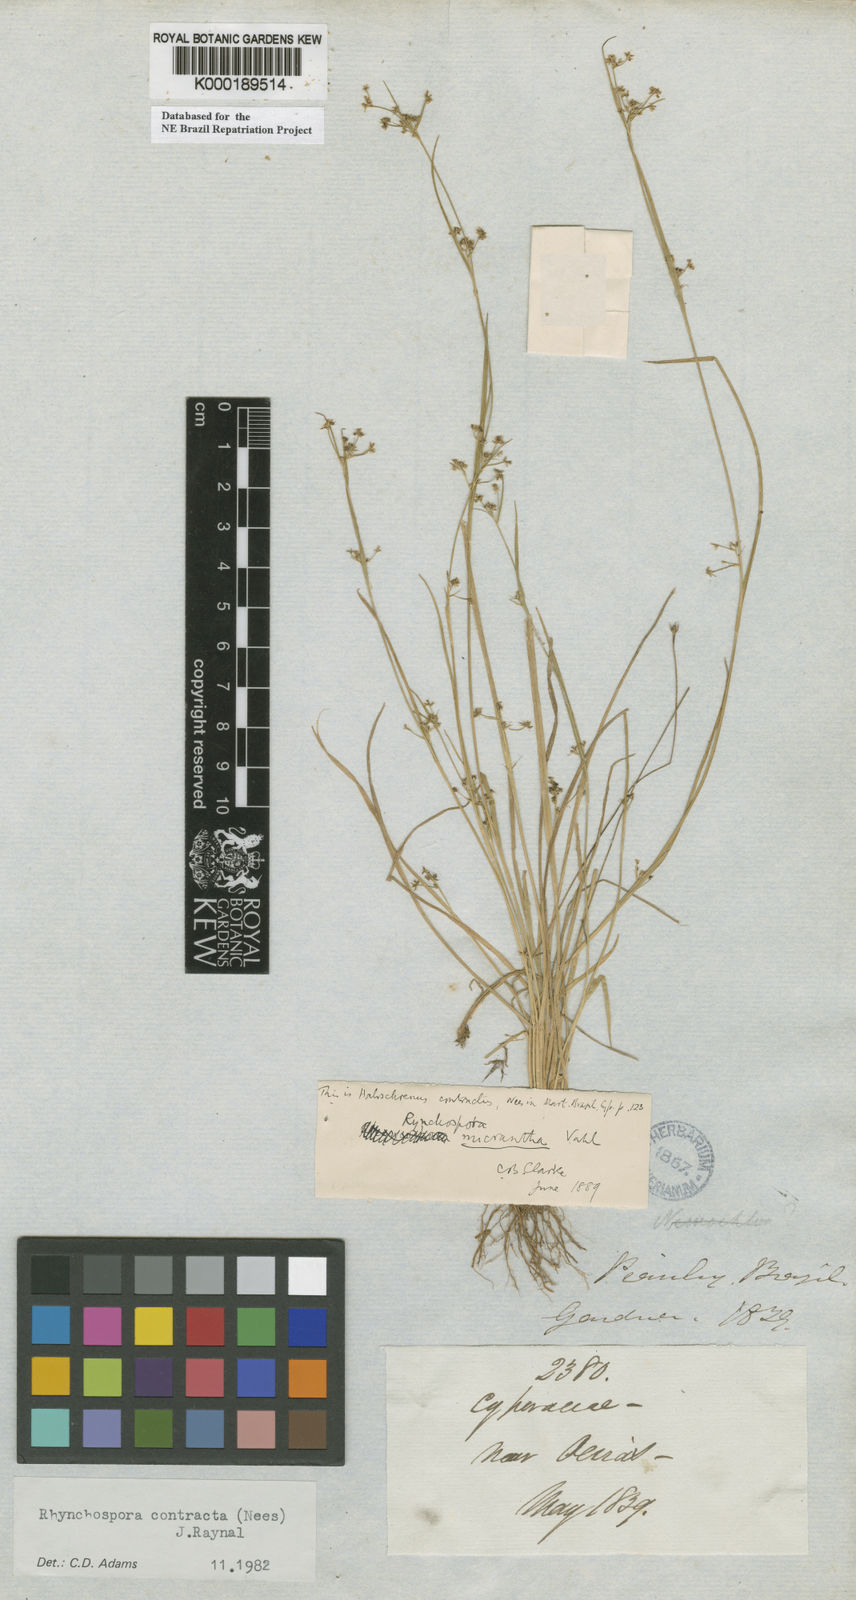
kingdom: Plantae
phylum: Tracheophyta
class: Liliopsida
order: Poales
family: Cyperaceae
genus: Rhynchospora
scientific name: Rhynchospora contracta
